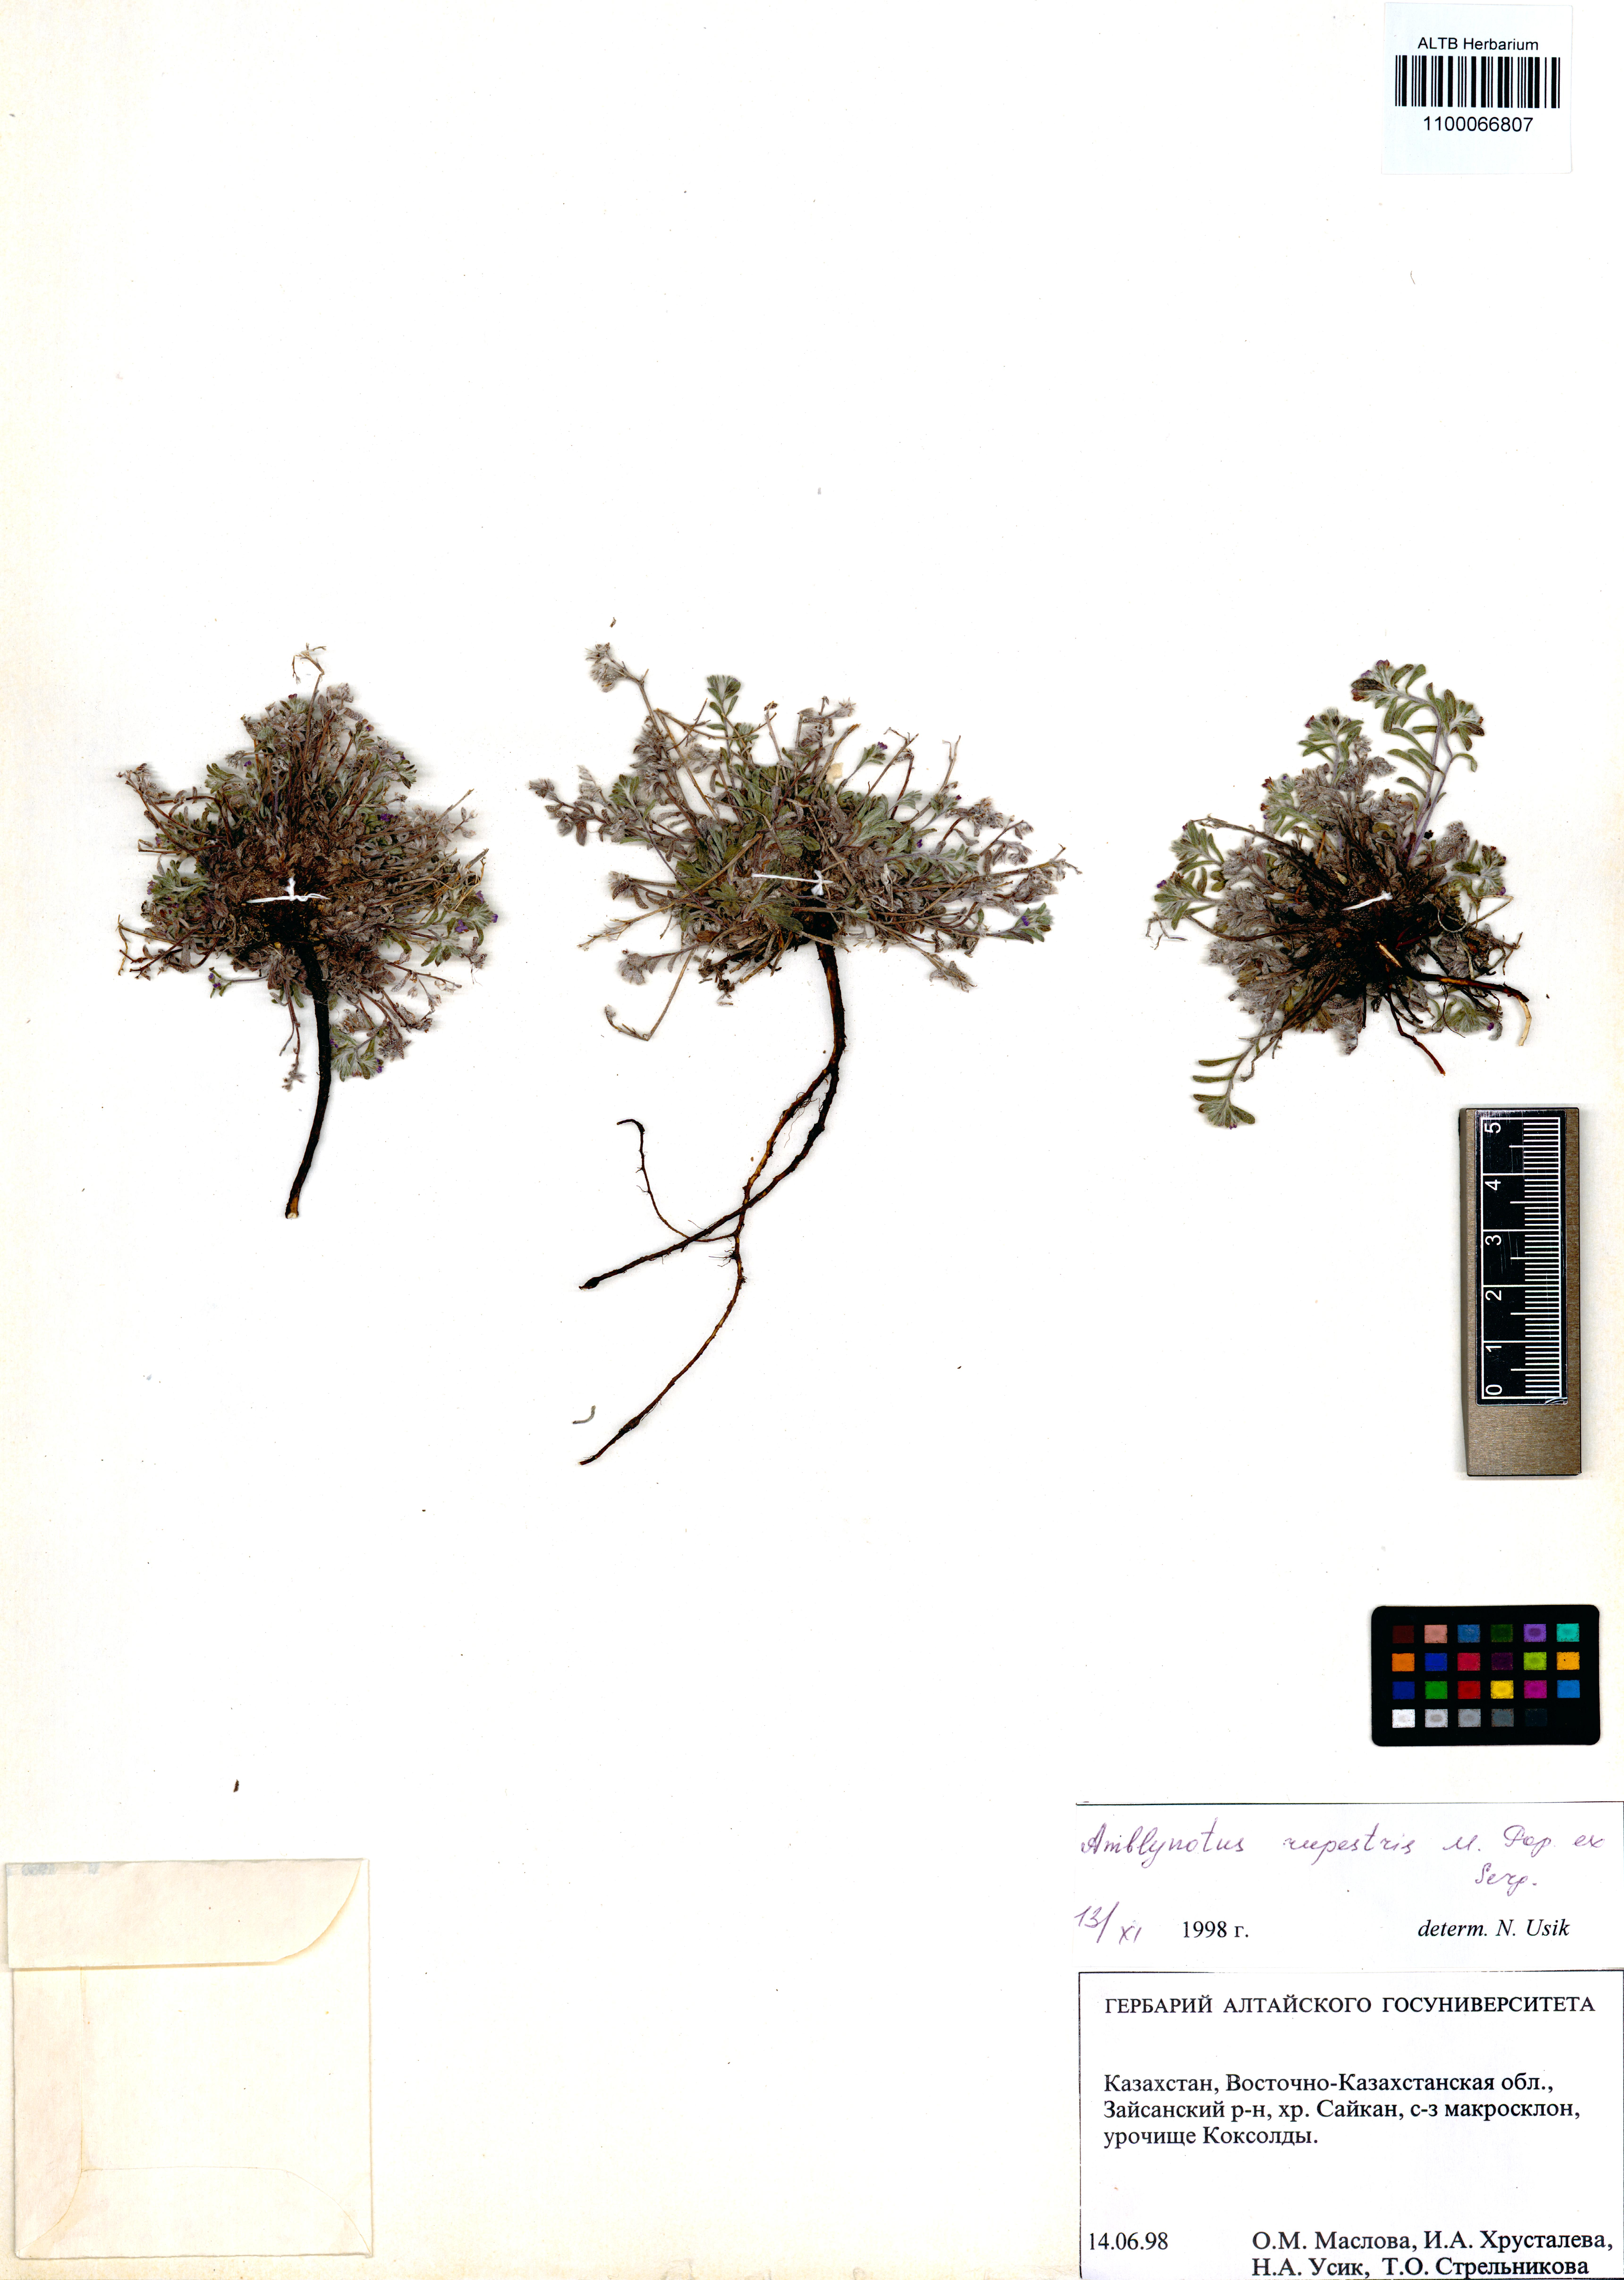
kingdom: Plantae
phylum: Tracheophyta
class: Magnoliopsida
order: Boraginales
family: Boraginaceae
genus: Eritrichium
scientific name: Eritrichium rupestre
